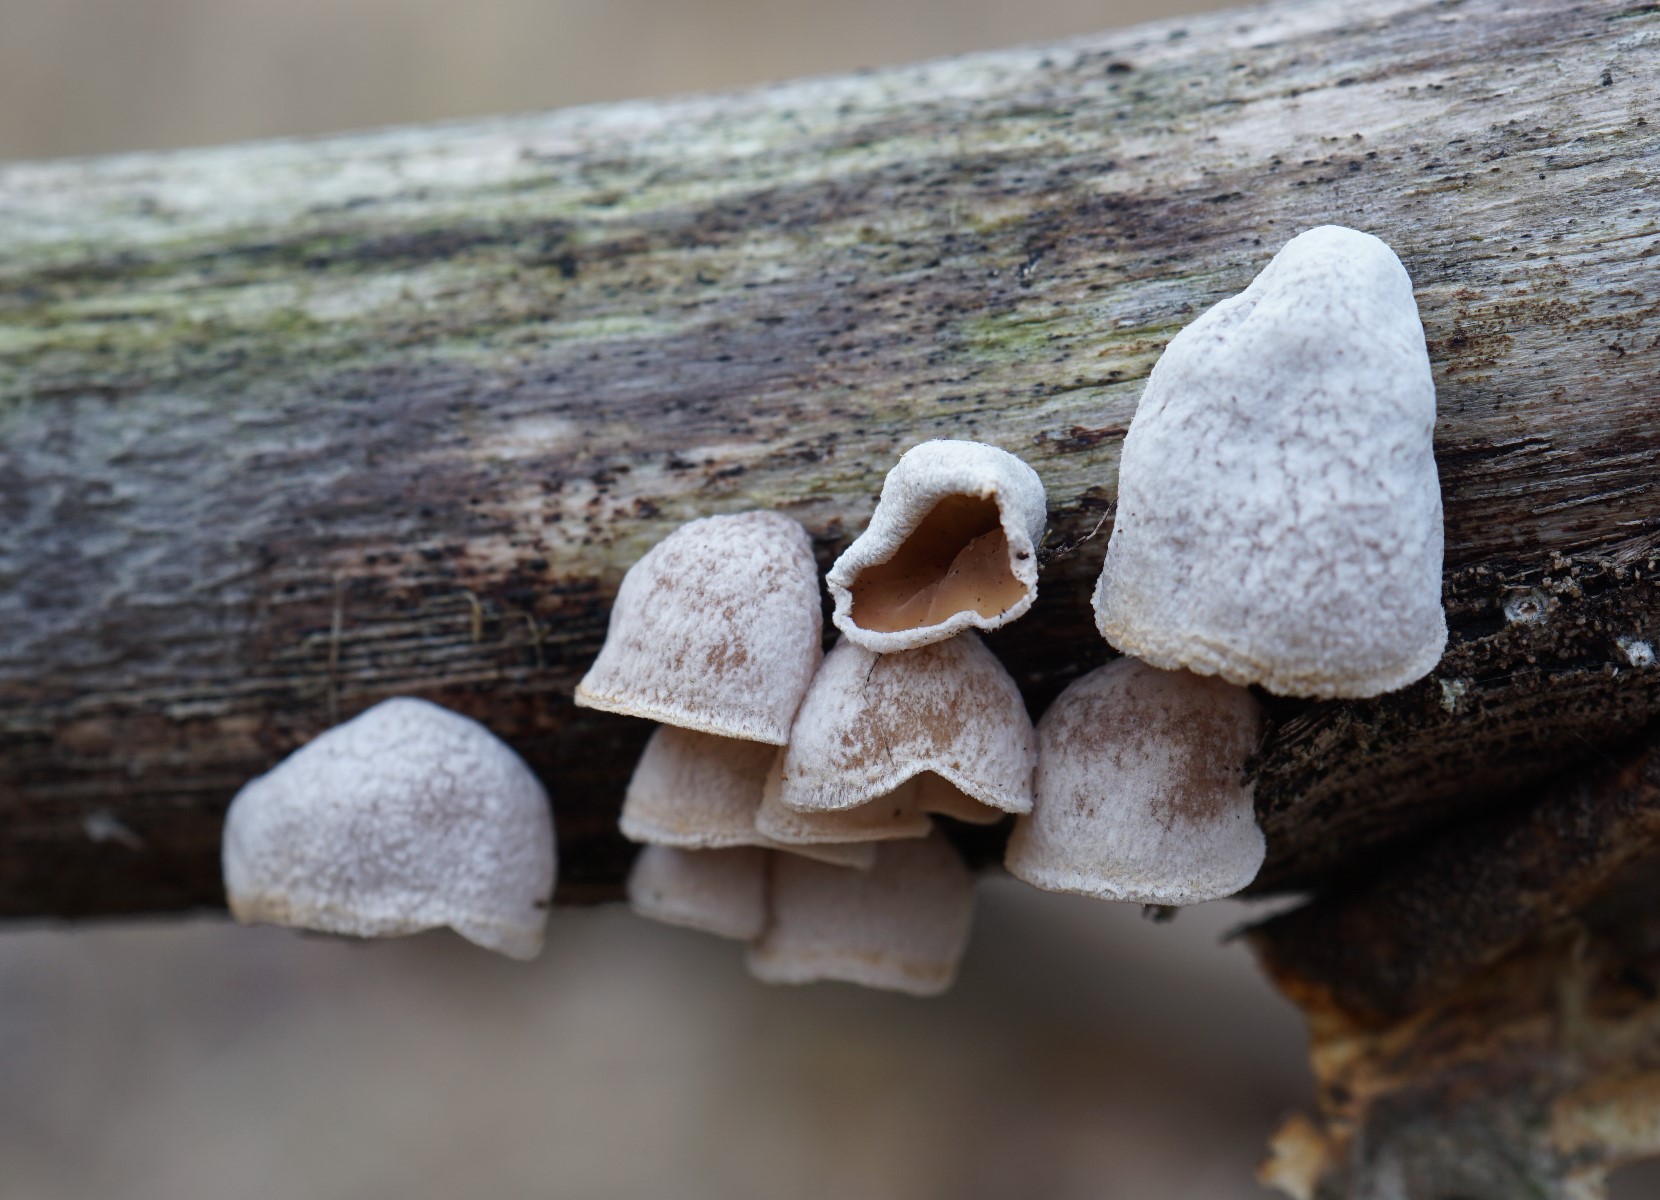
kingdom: Fungi
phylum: Basidiomycota
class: Agaricomycetes
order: Agaricales
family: Schizophyllaceae
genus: Schizophyllum
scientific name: Schizophyllum amplum
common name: poppel-hængeøre
